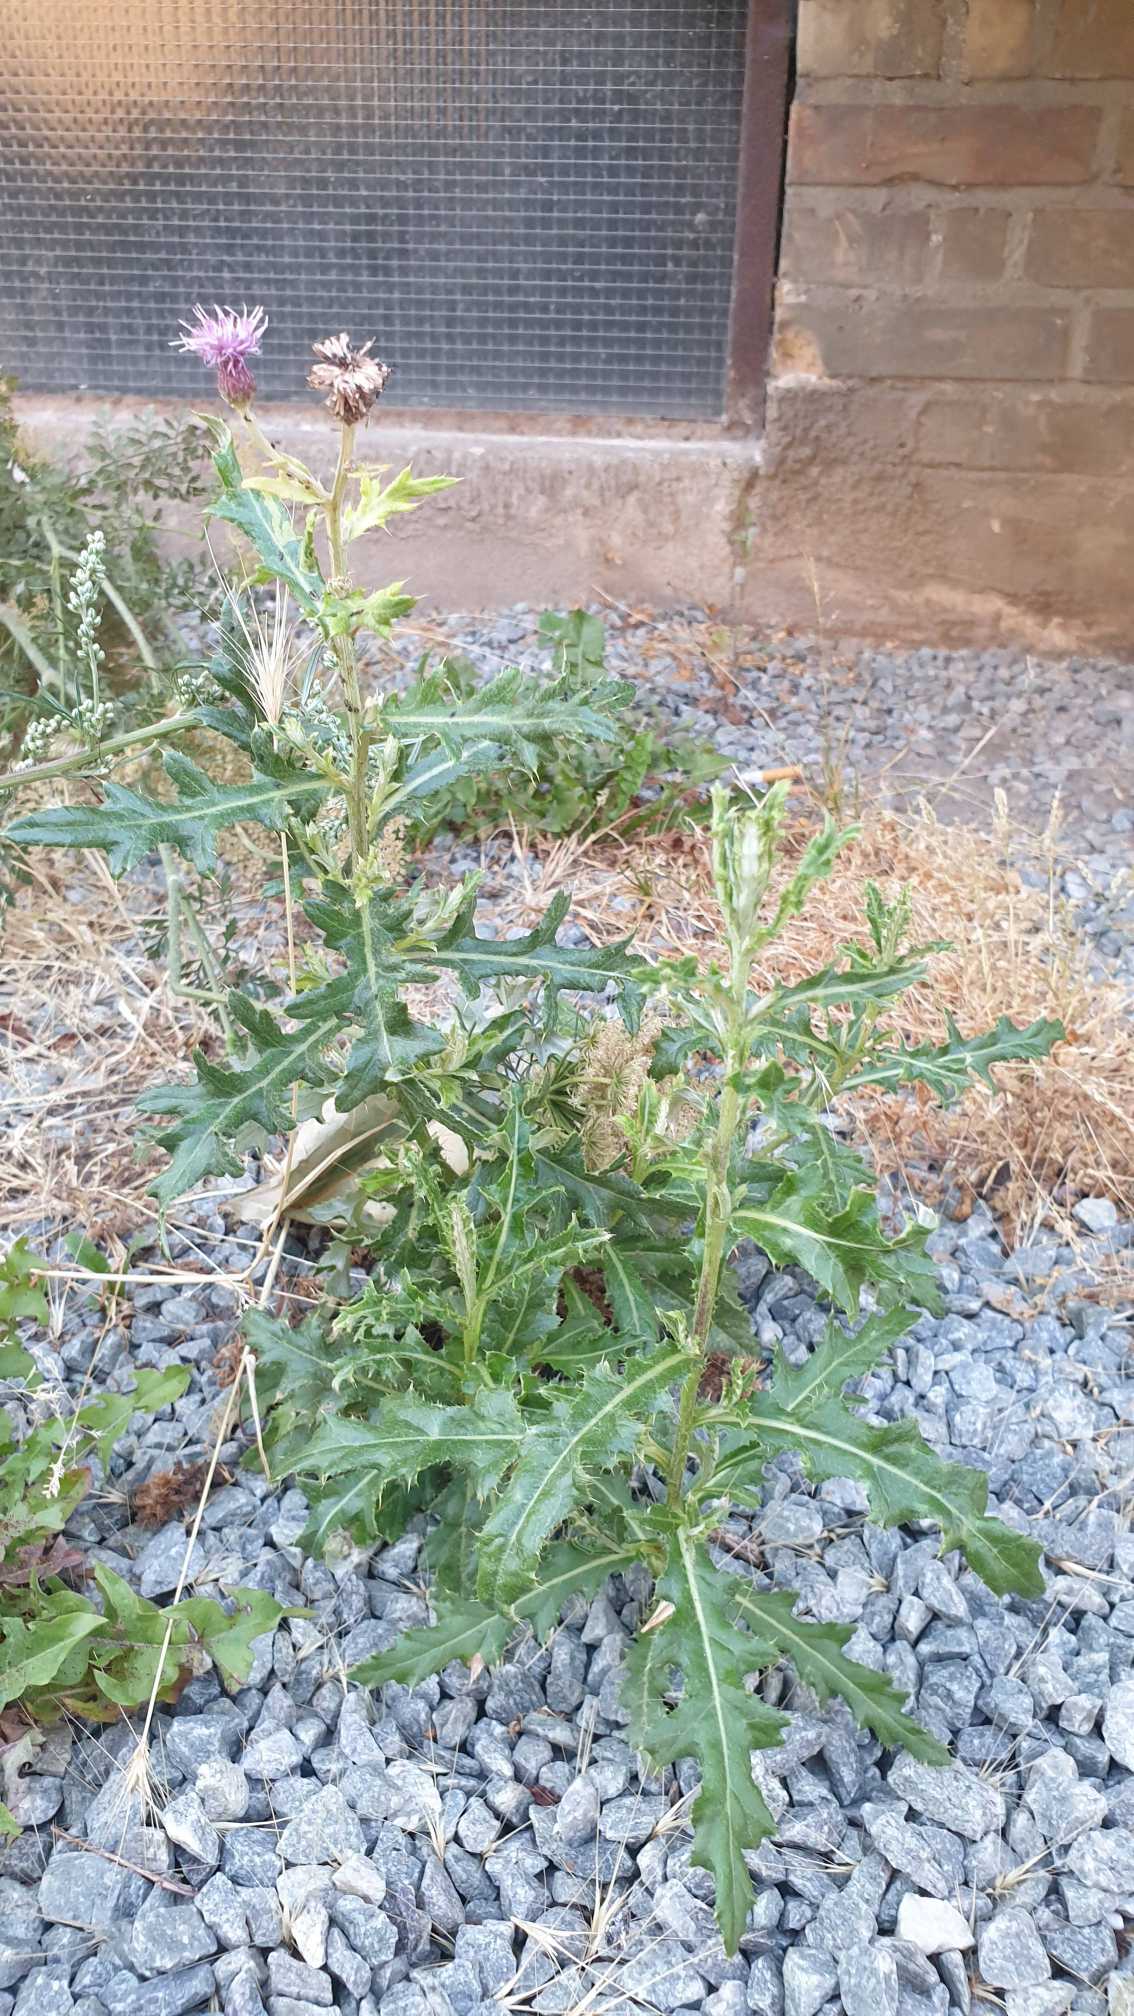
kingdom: Plantae
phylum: Tracheophyta
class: Magnoliopsida
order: Asterales
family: Asteraceae
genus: Cirsium
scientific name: Cirsium arvense
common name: Ager-tidsel
